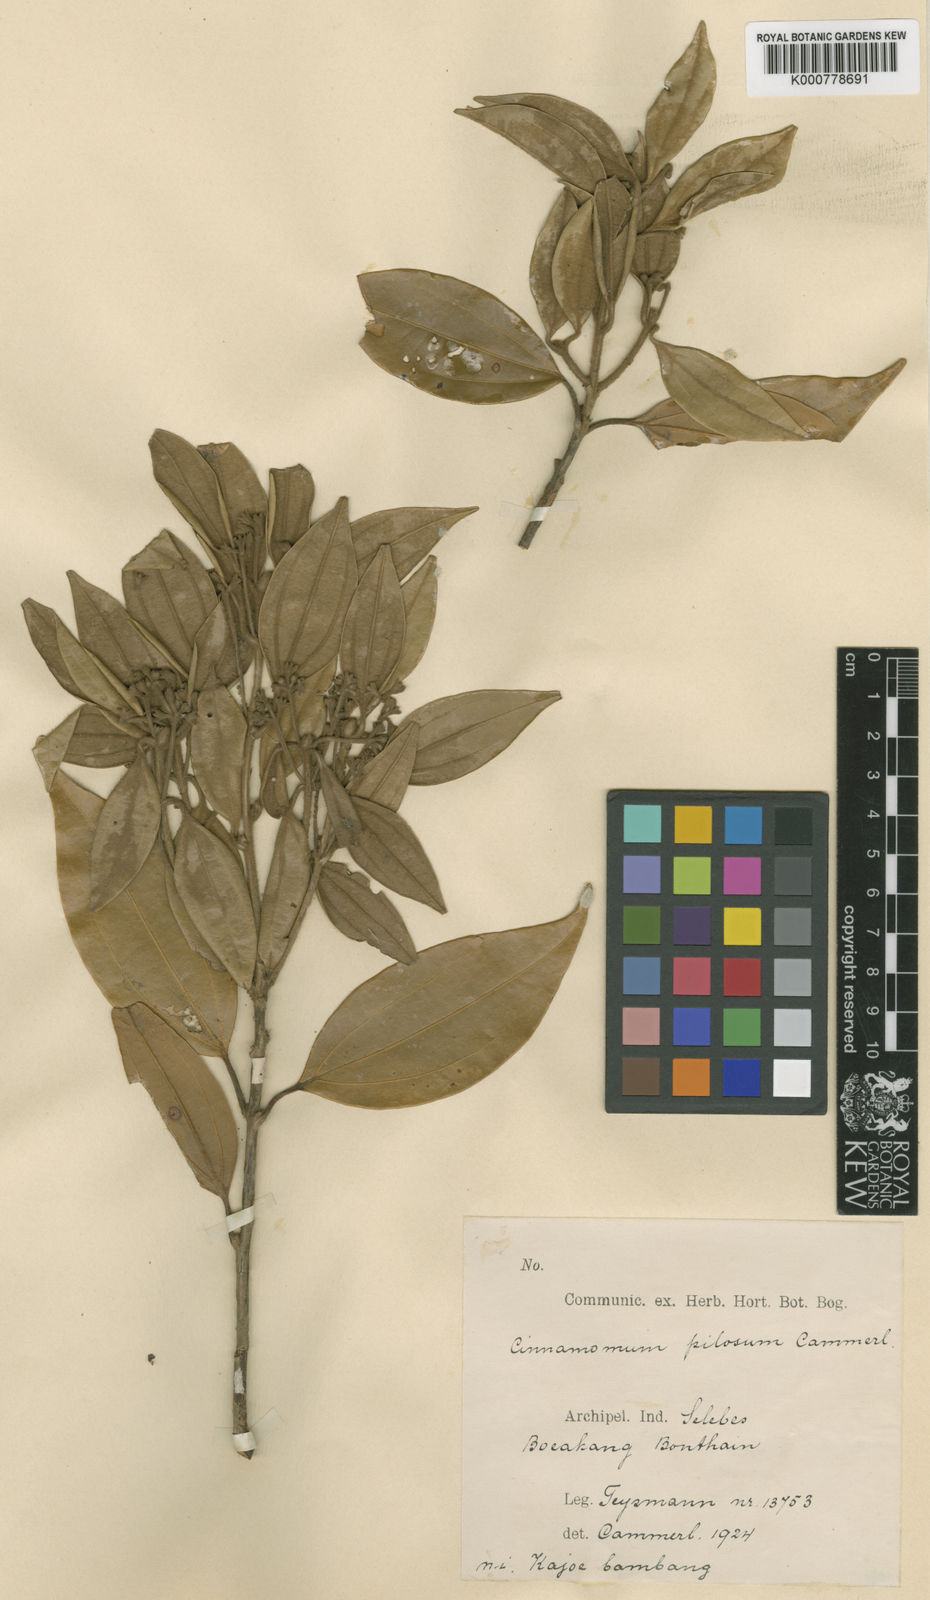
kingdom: Plantae
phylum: Tracheophyta
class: Magnoliopsida
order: Laurales
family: Lauraceae
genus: Cinnamomum
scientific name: Cinnamomum pilosum
